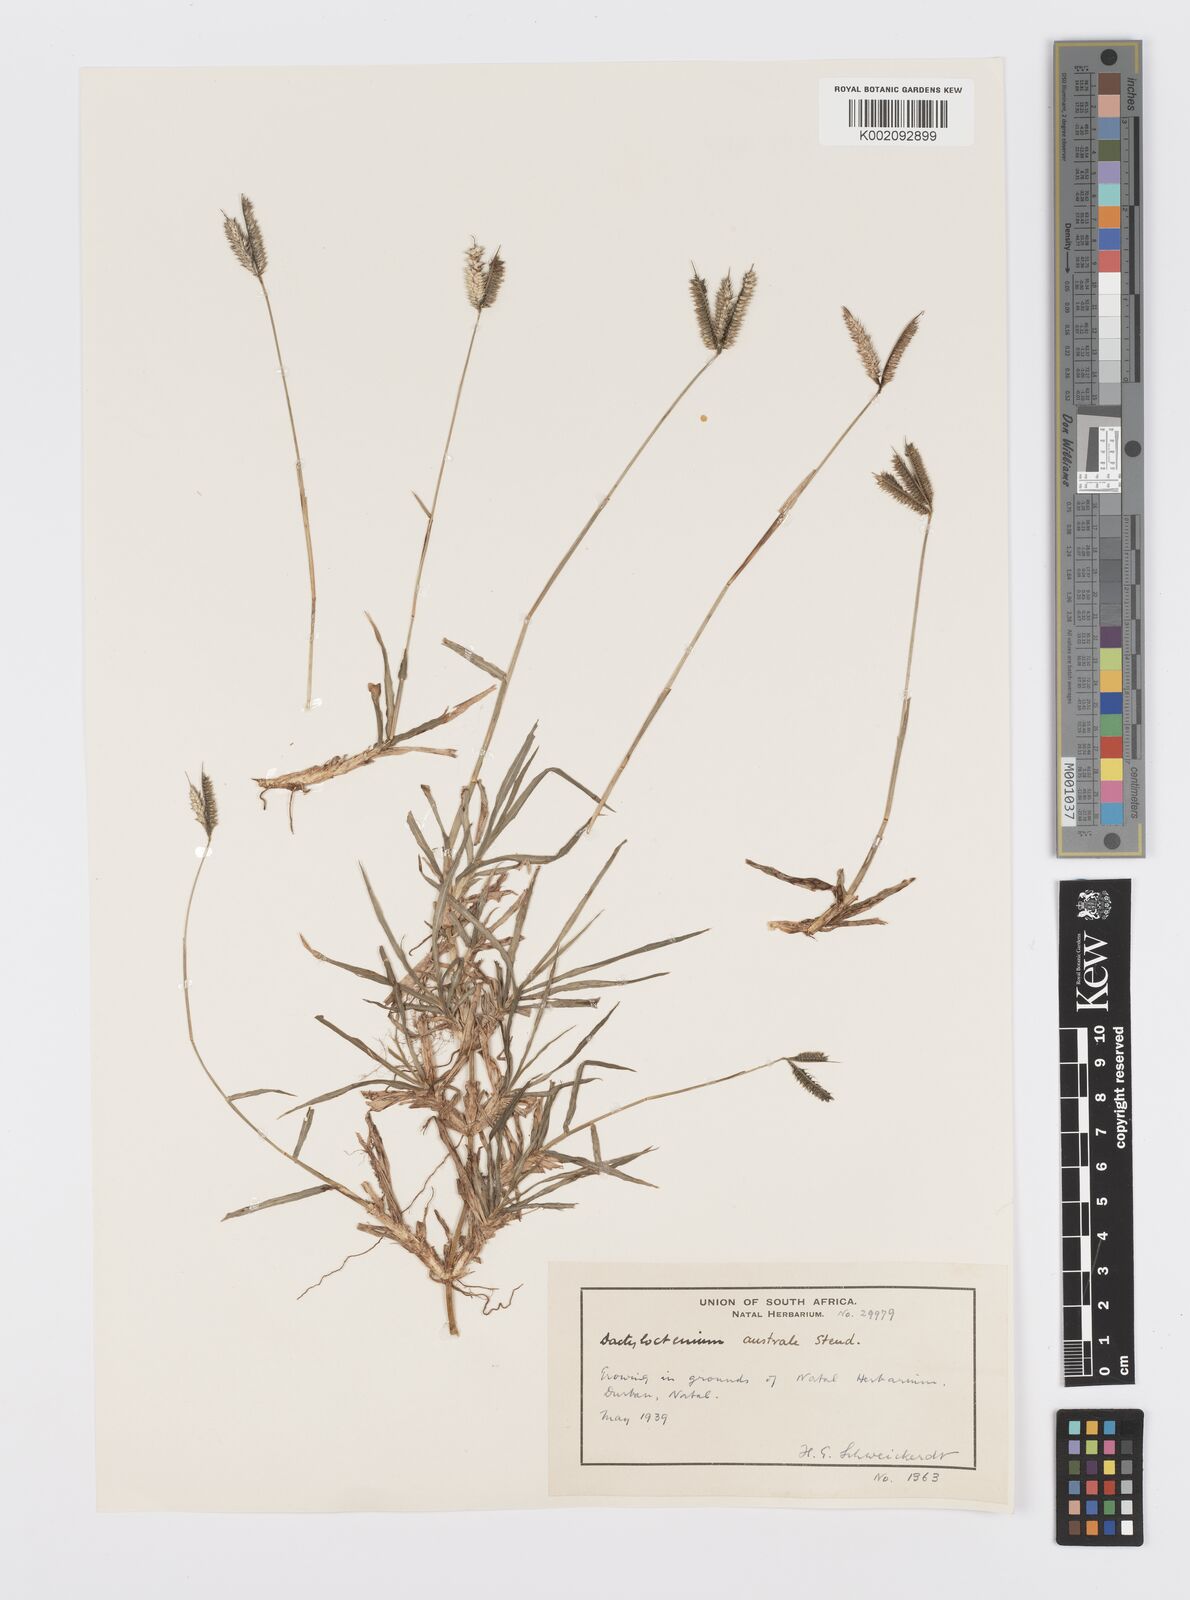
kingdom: Plantae
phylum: Tracheophyta
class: Liliopsida
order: Poales
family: Poaceae
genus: Dactyloctenium
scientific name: Dactyloctenium australe
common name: Durban grass
